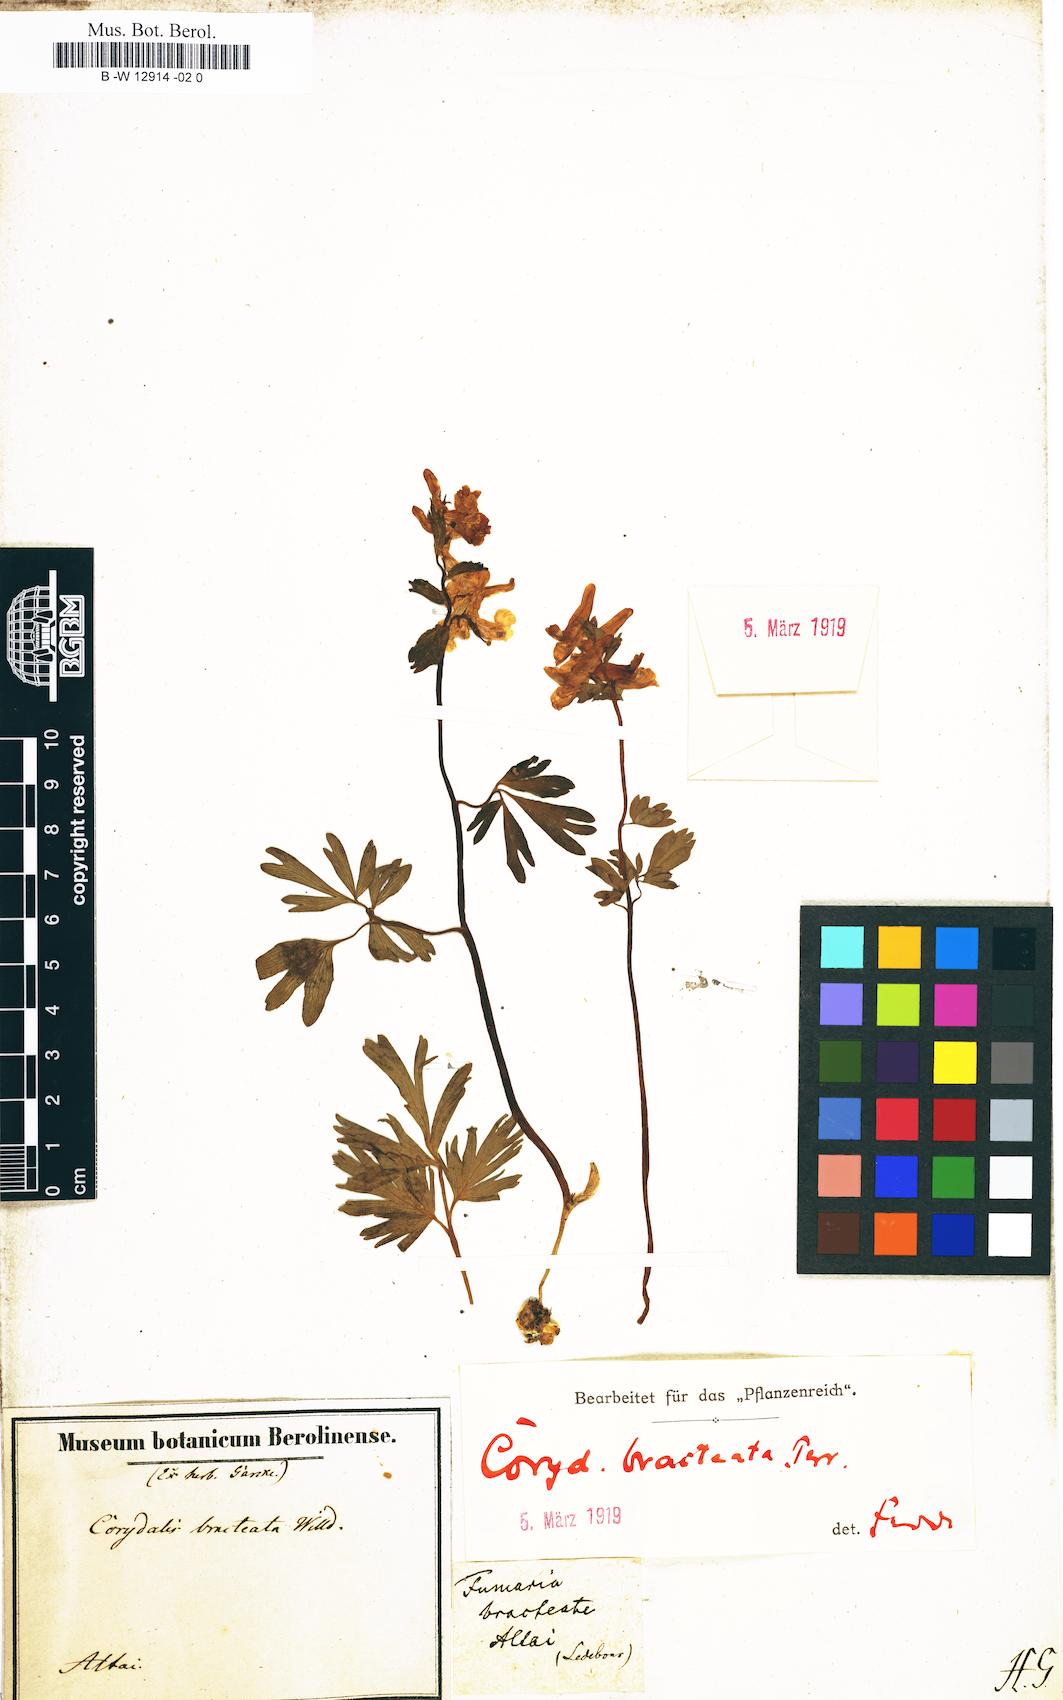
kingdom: Plantae
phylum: Tracheophyta
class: Magnoliopsida
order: Ranunculales
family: Papaveraceae
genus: Corydalis
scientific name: Corydalis bracteata
